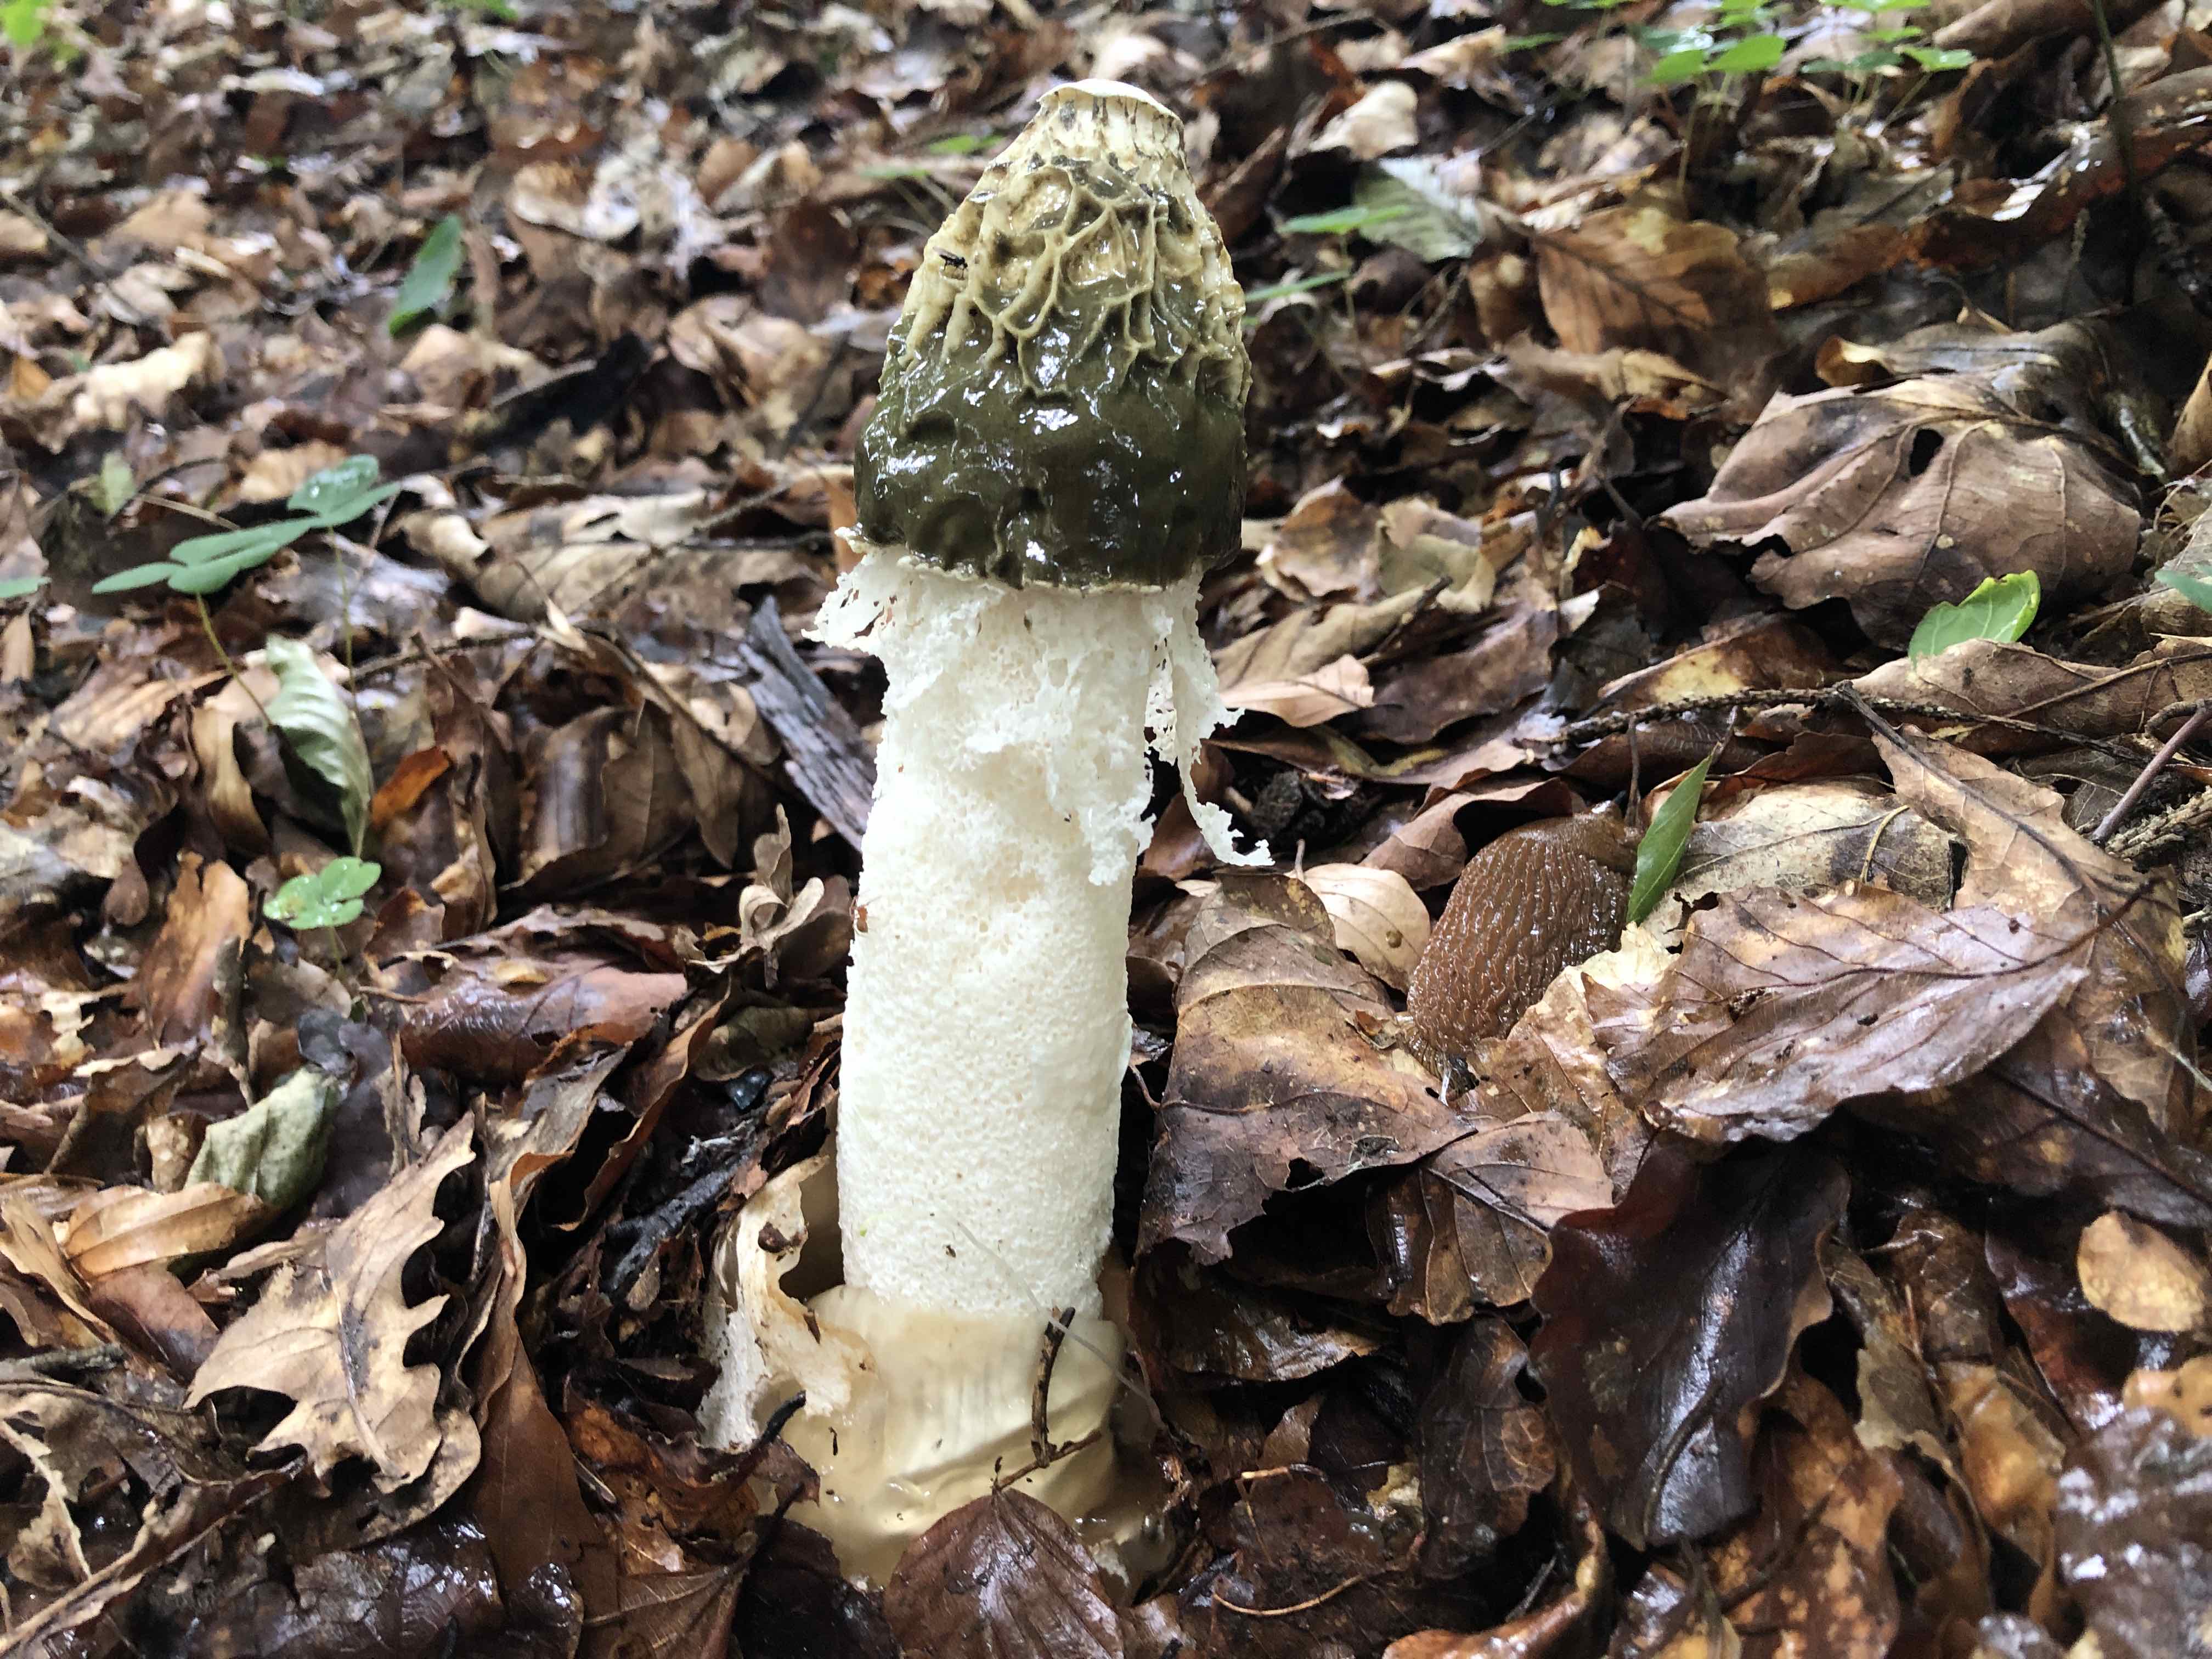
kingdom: Fungi
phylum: Basidiomycota
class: Agaricomycetes
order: Phallales
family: Phallaceae
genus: Phallus
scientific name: Phallus impudicus
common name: Common stinkhorn
